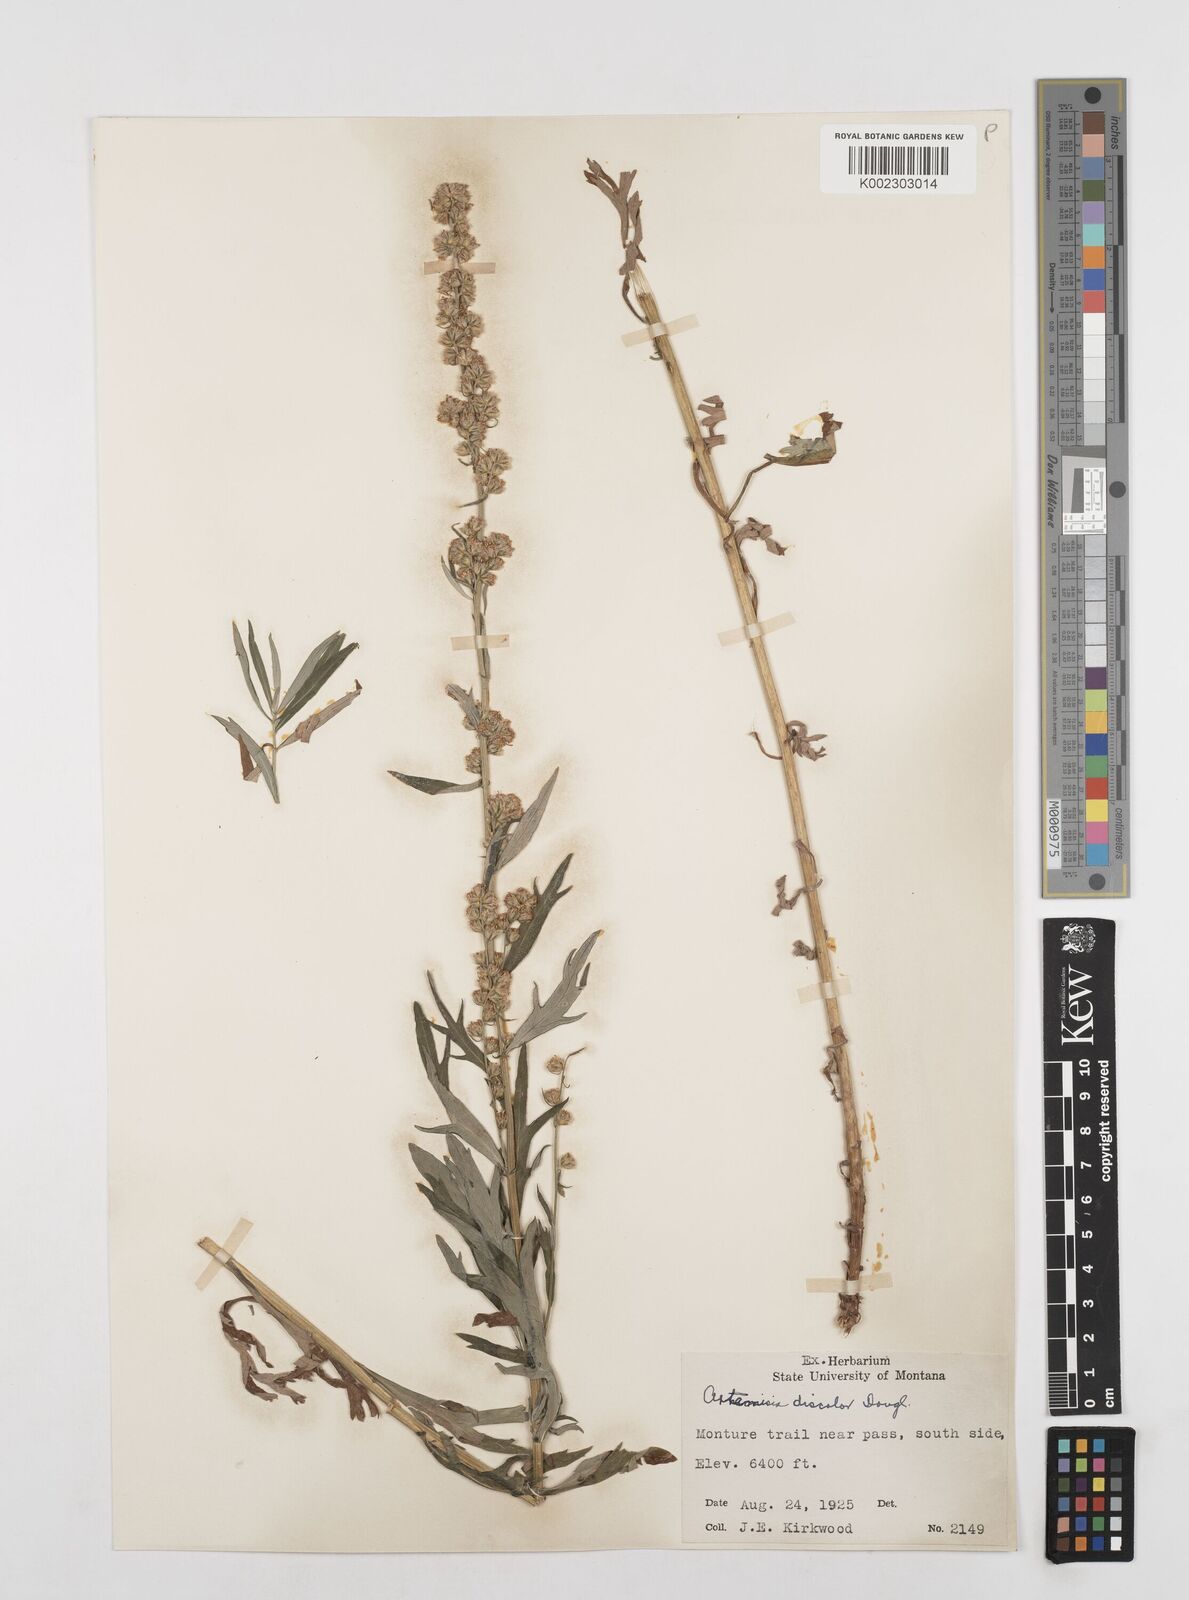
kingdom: Plantae
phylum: Tracheophyta
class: Magnoliopsida
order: Asterales
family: Asteraceae
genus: Artemisia
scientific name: Artemisia michauxiana
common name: Lemon sagewort
